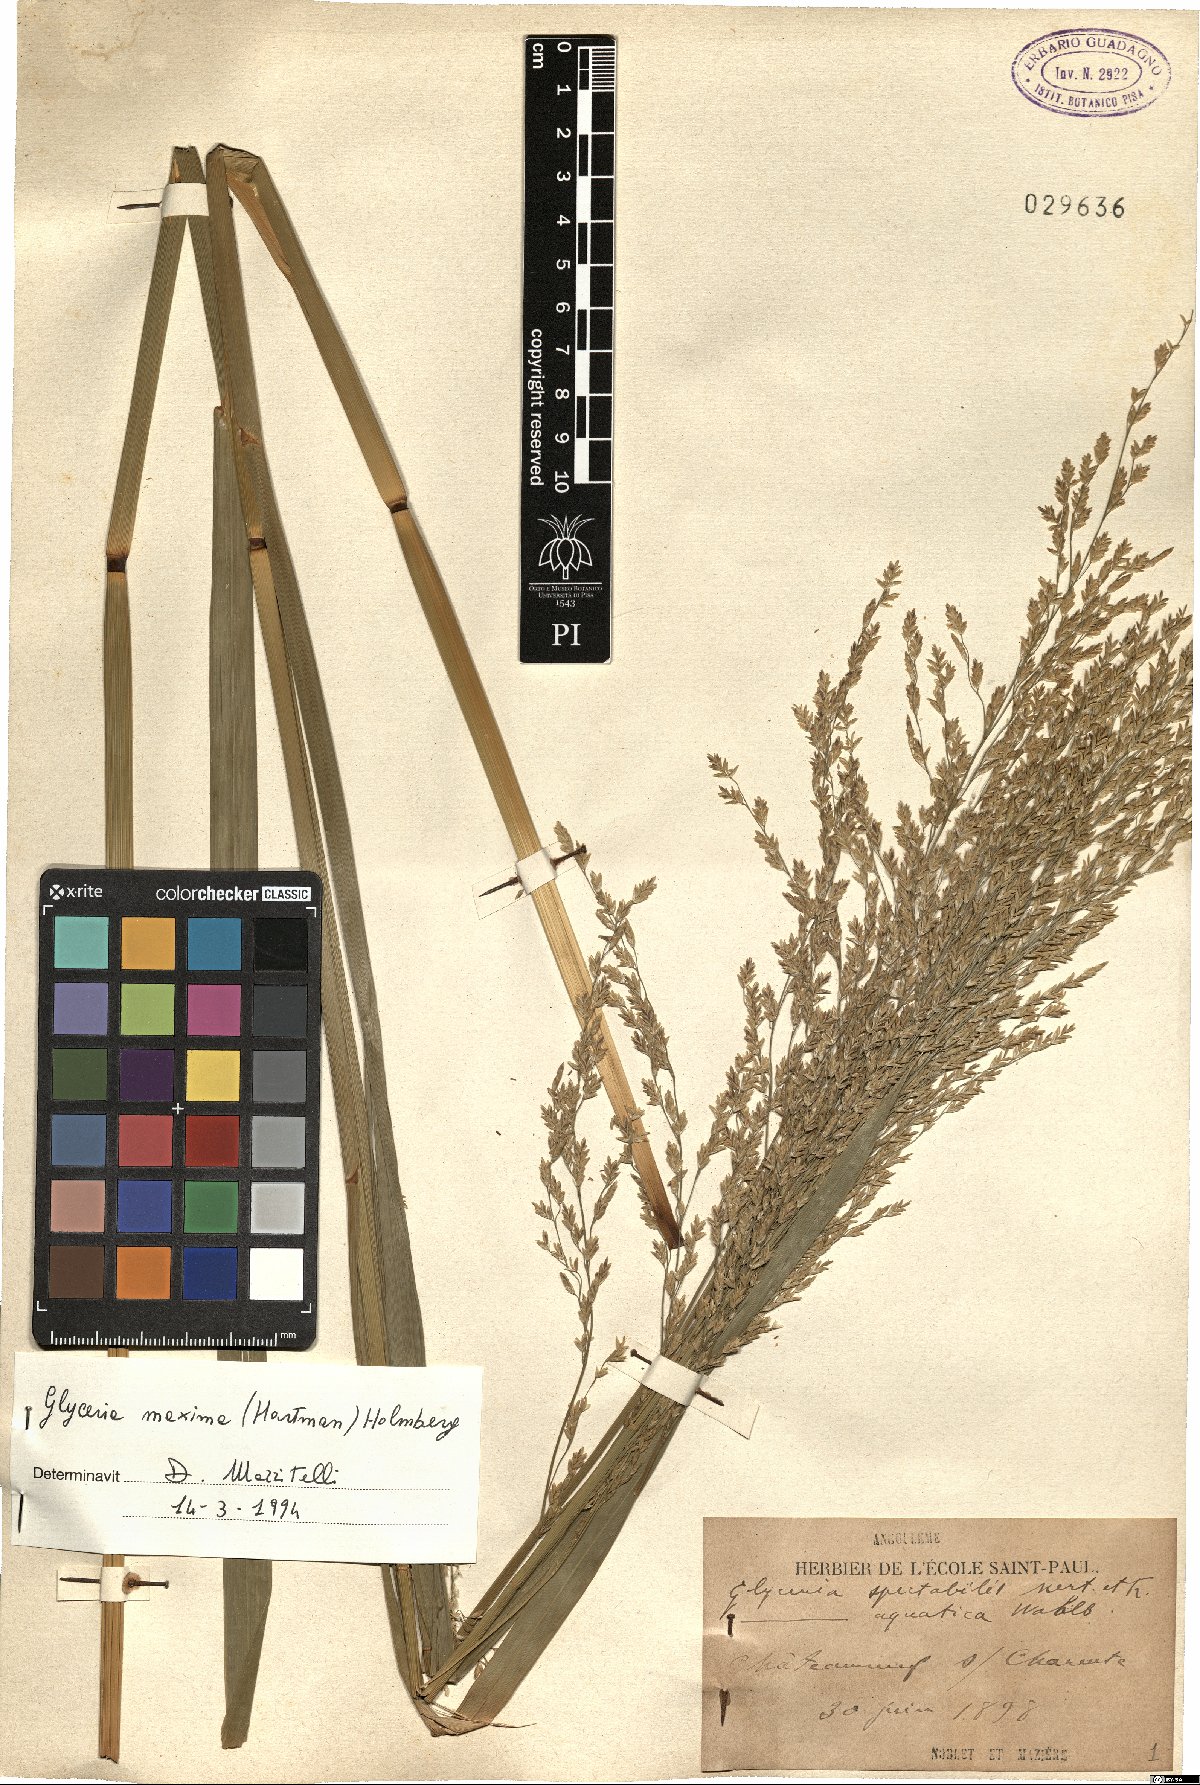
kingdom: Plantae
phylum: Tracheophyta
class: Liliopsida
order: Poales
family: Poaceae
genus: Glyceria
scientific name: Glyceria maxima
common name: Reed mannagrass
